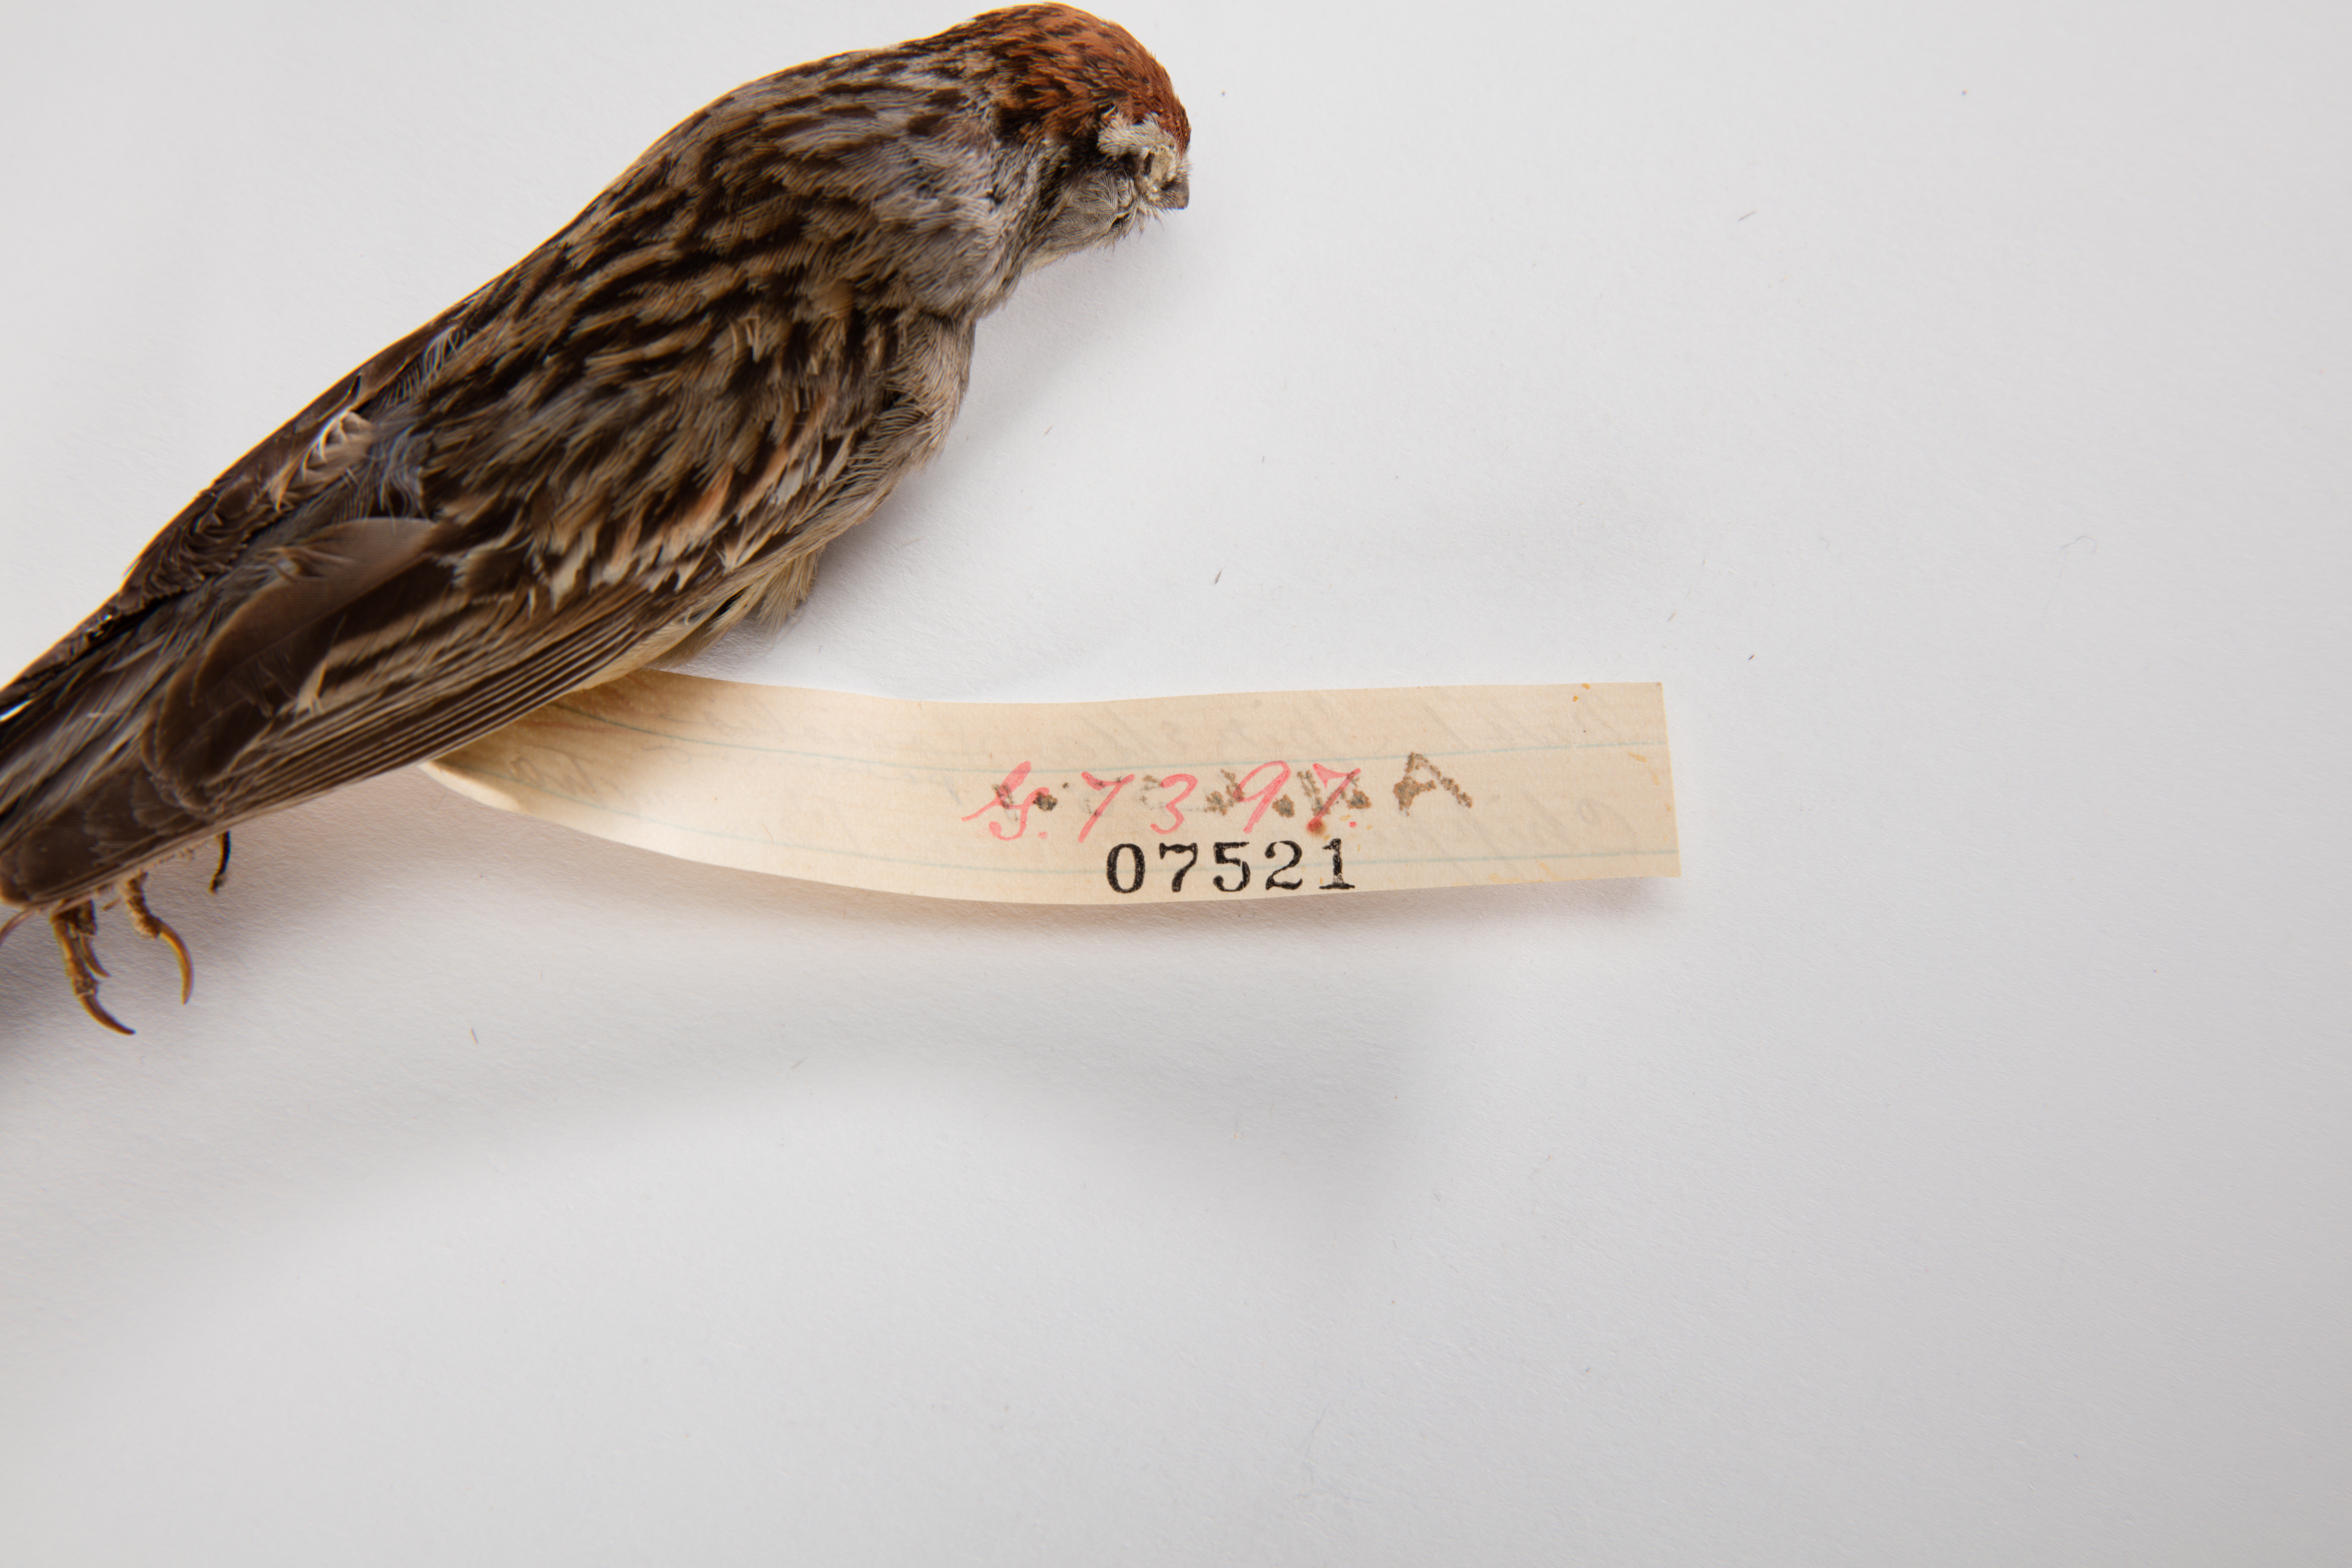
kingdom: Animalia
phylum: Chordata
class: Aves
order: Passeriformes
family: Passerellidae
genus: Spizella
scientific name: Spizella passerina
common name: Chipping sparrow
